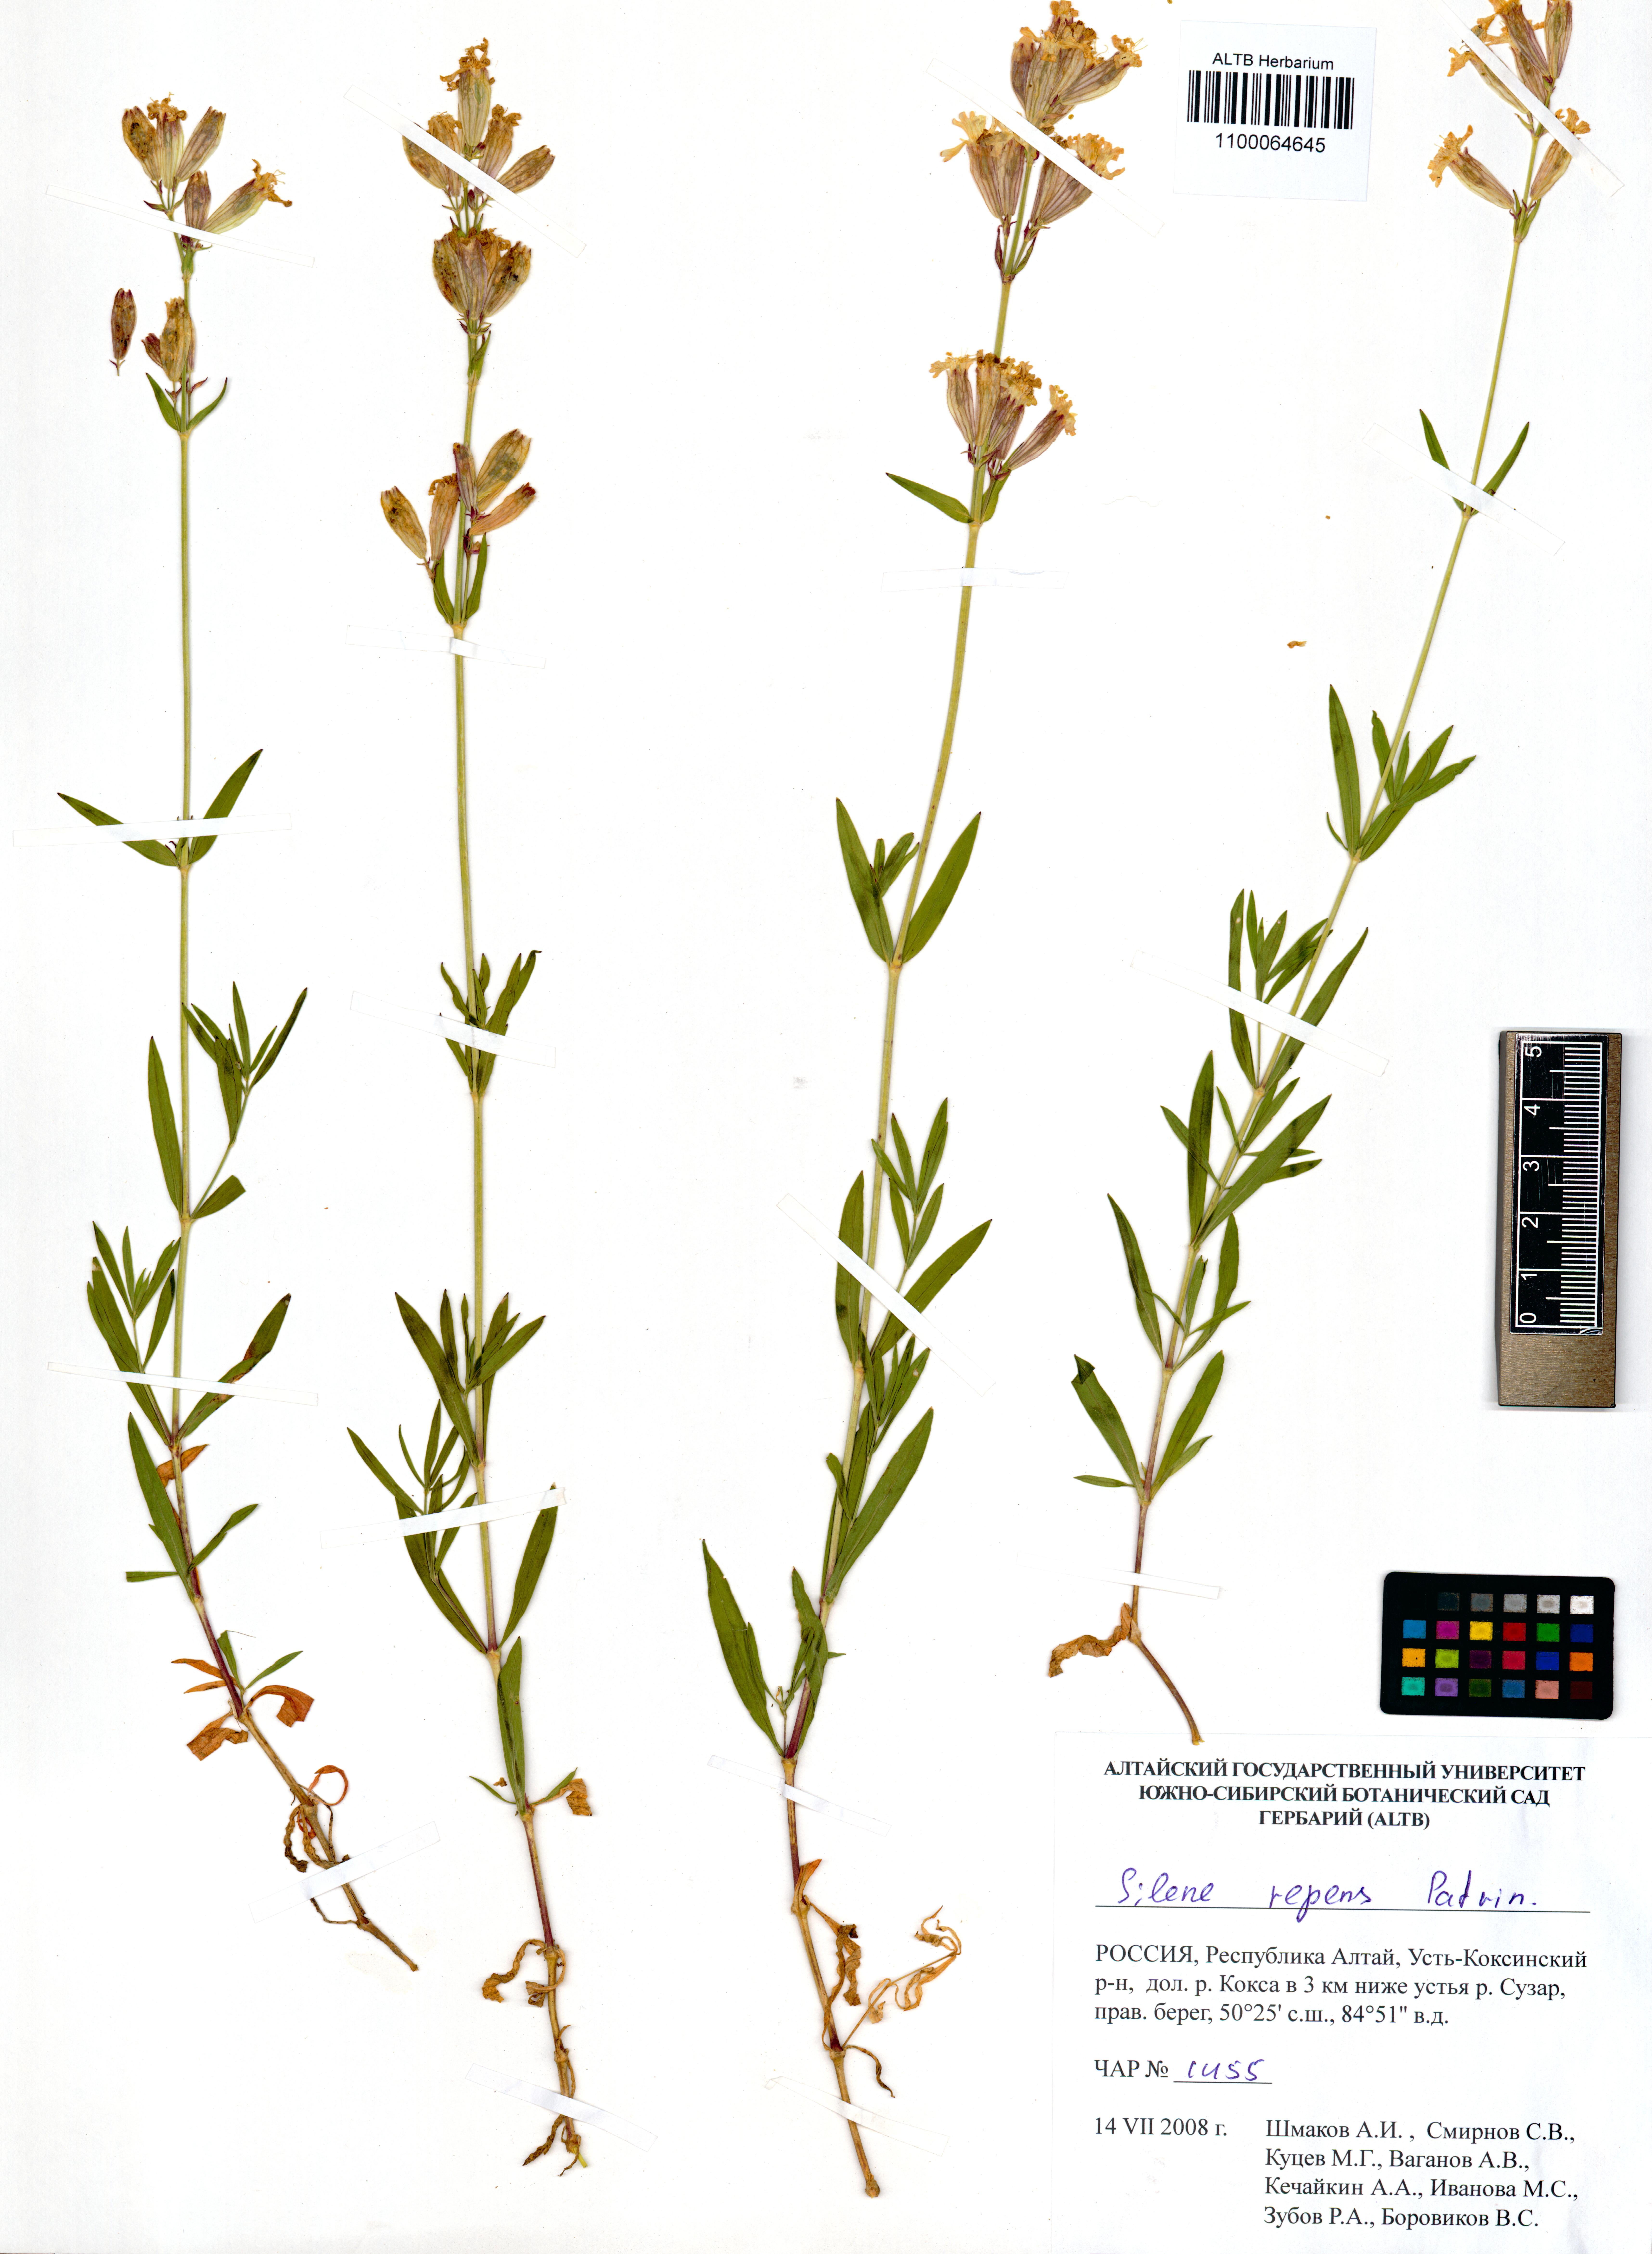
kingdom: Plantae
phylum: Tracheophyta
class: Magnoliopsida
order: Caryophyllales
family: Caryophyllaceae
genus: Silene
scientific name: Silene repens
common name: Pink campion
